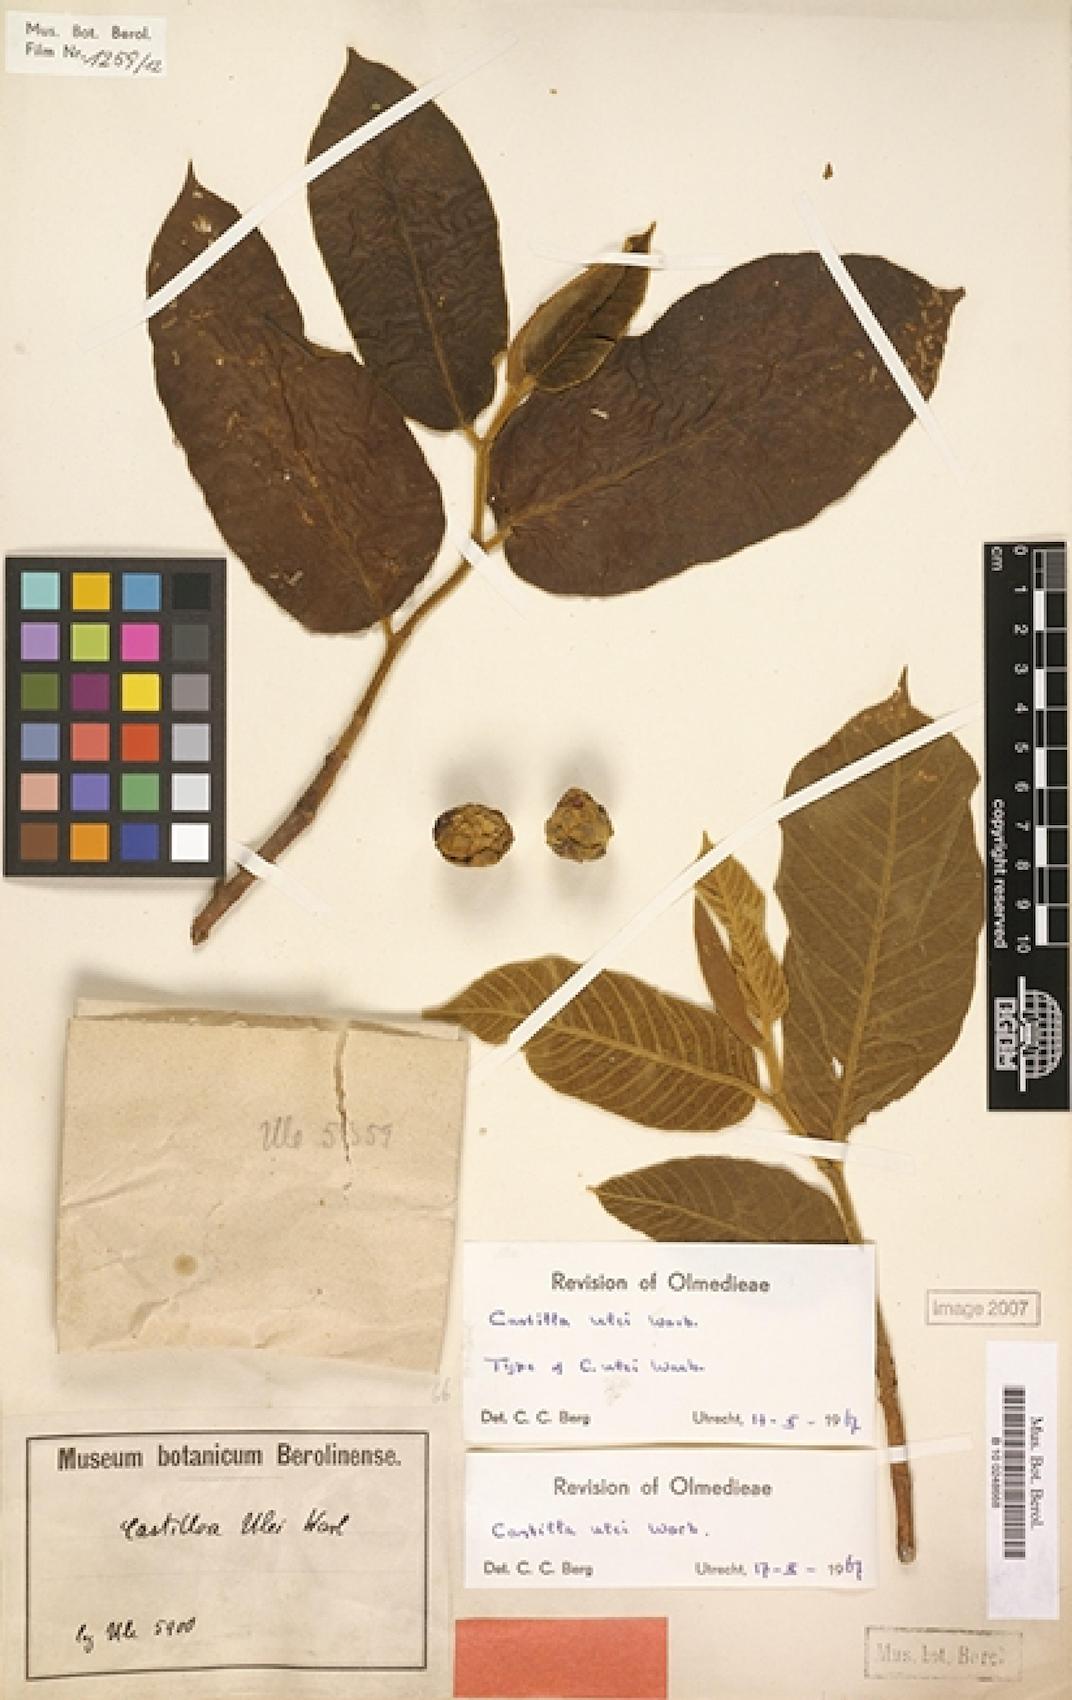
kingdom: Plantae
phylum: Tracheophyta
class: Magnoliopsida
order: Rosales
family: Moraceae
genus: Castilla
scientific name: Castilla ulei
